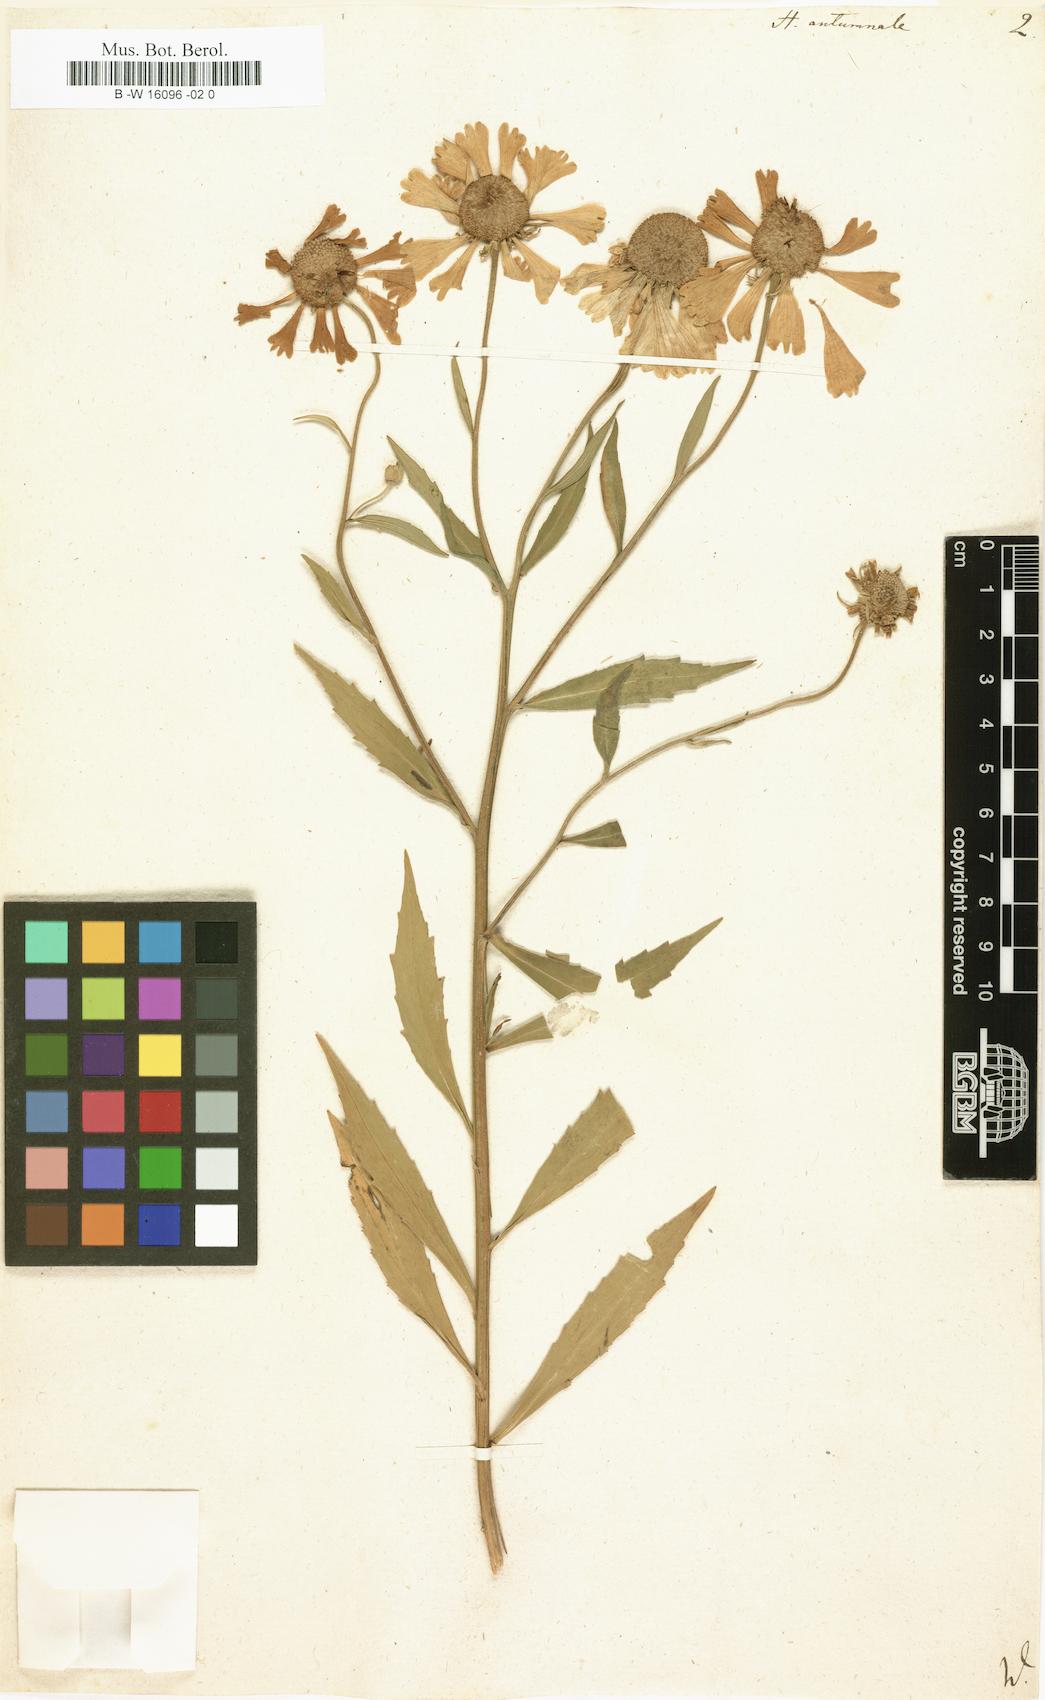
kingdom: Plantae
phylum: Tracheophyta
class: Magnoliopsida
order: Asterales
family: Asteraceae
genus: Helenium
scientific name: Helenium autumnale
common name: Sneezeweed
